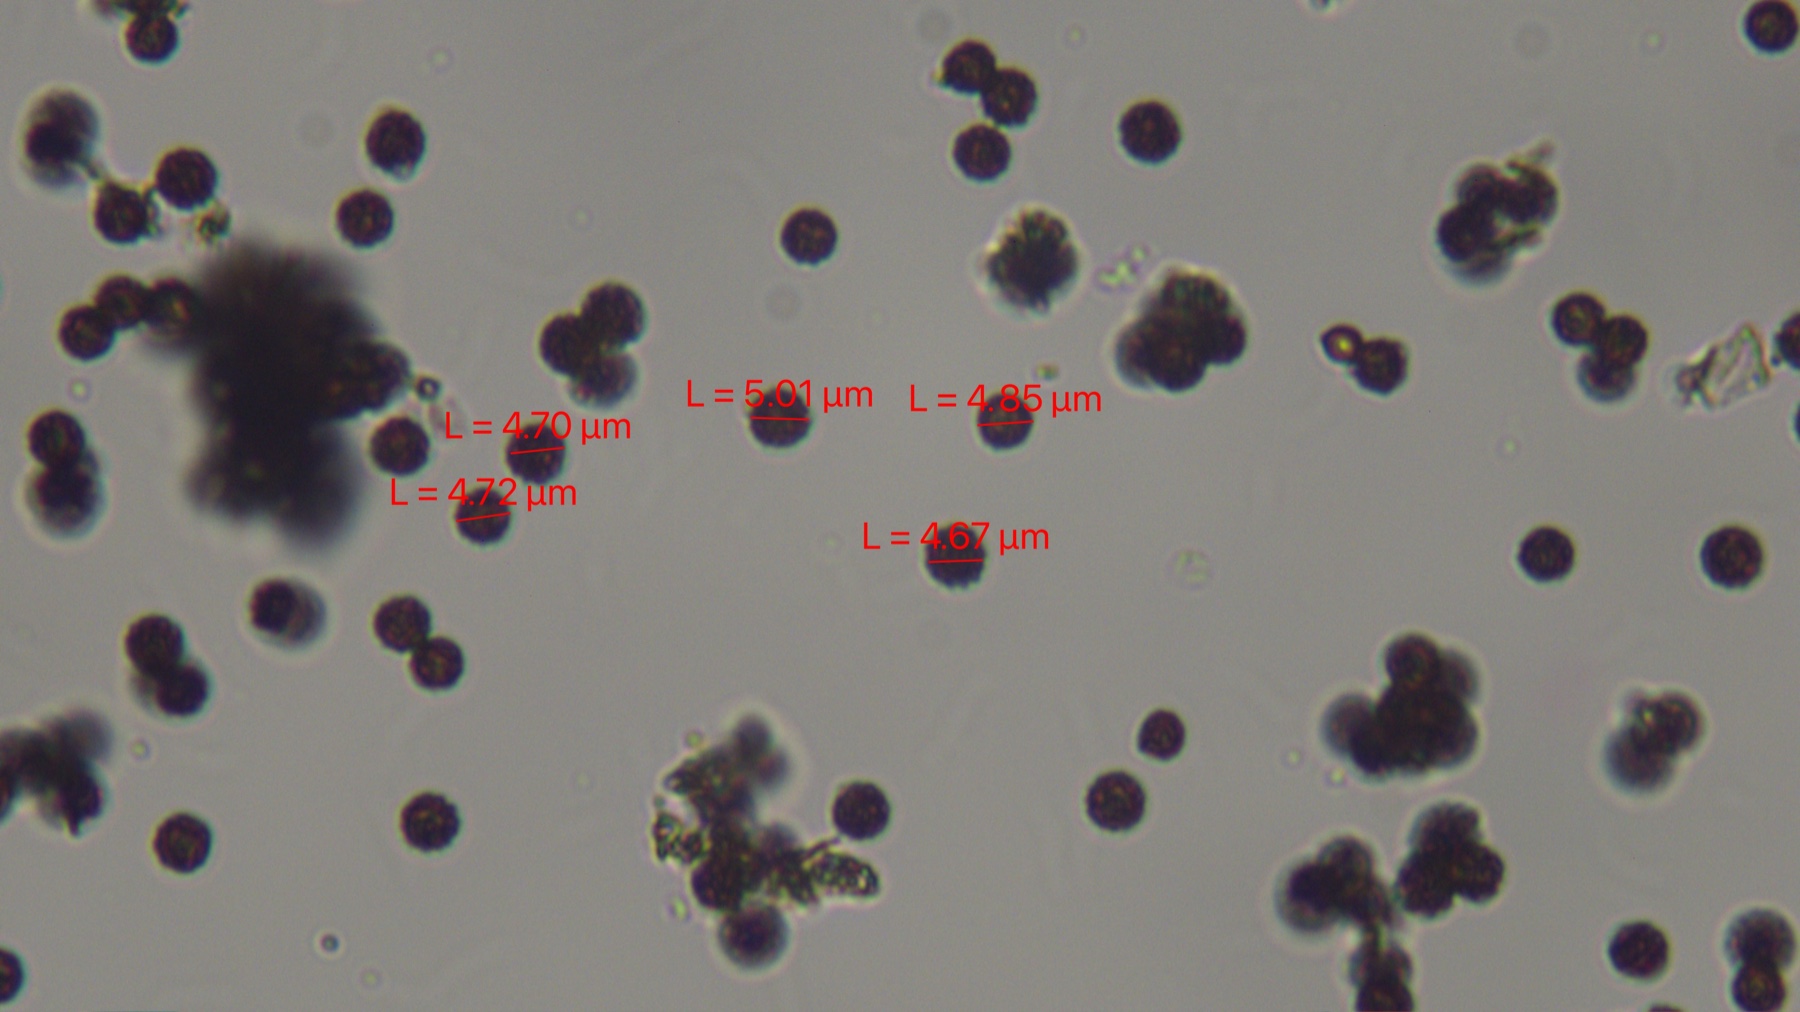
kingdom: Fungi
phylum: Basidiomycota
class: Agaricomycetes
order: Geastrales
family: Geastraceae
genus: Geastrum
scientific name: Geastrum rufescens
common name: kødfarvet stjernebold
